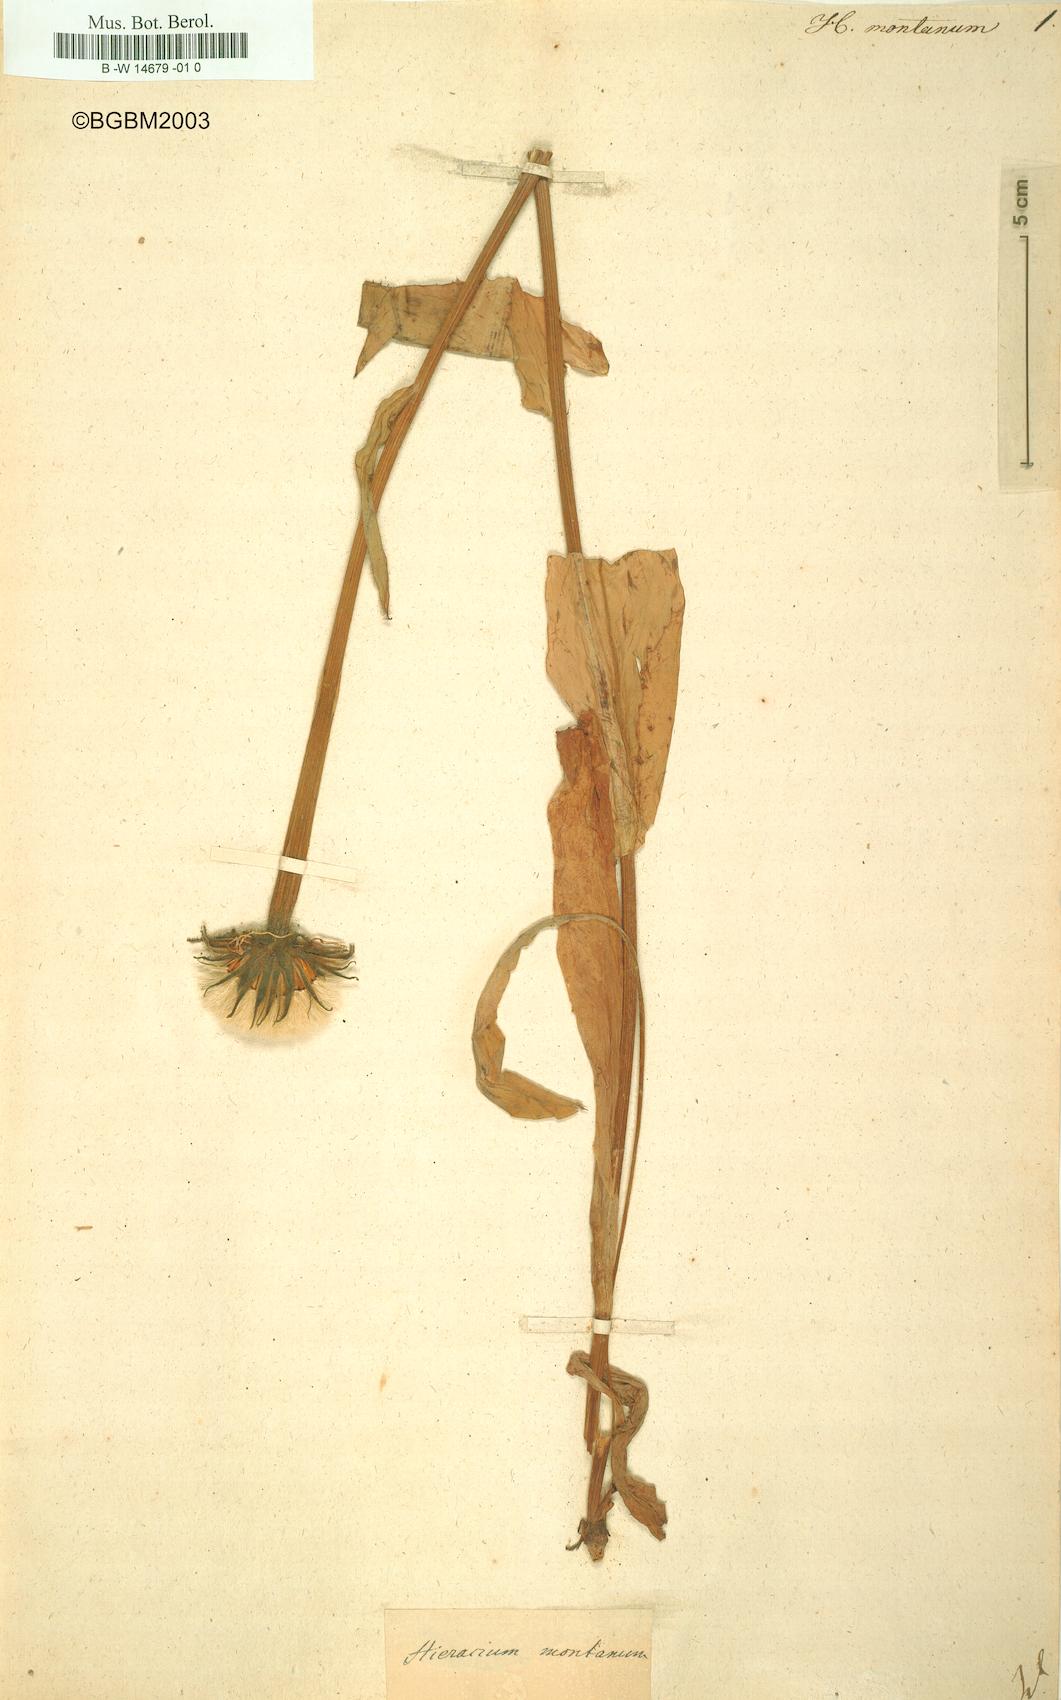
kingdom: Plantae
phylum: Tracheophyta
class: Magnoliopsida
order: Asterales
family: Asteraceae
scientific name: Asteraceae
